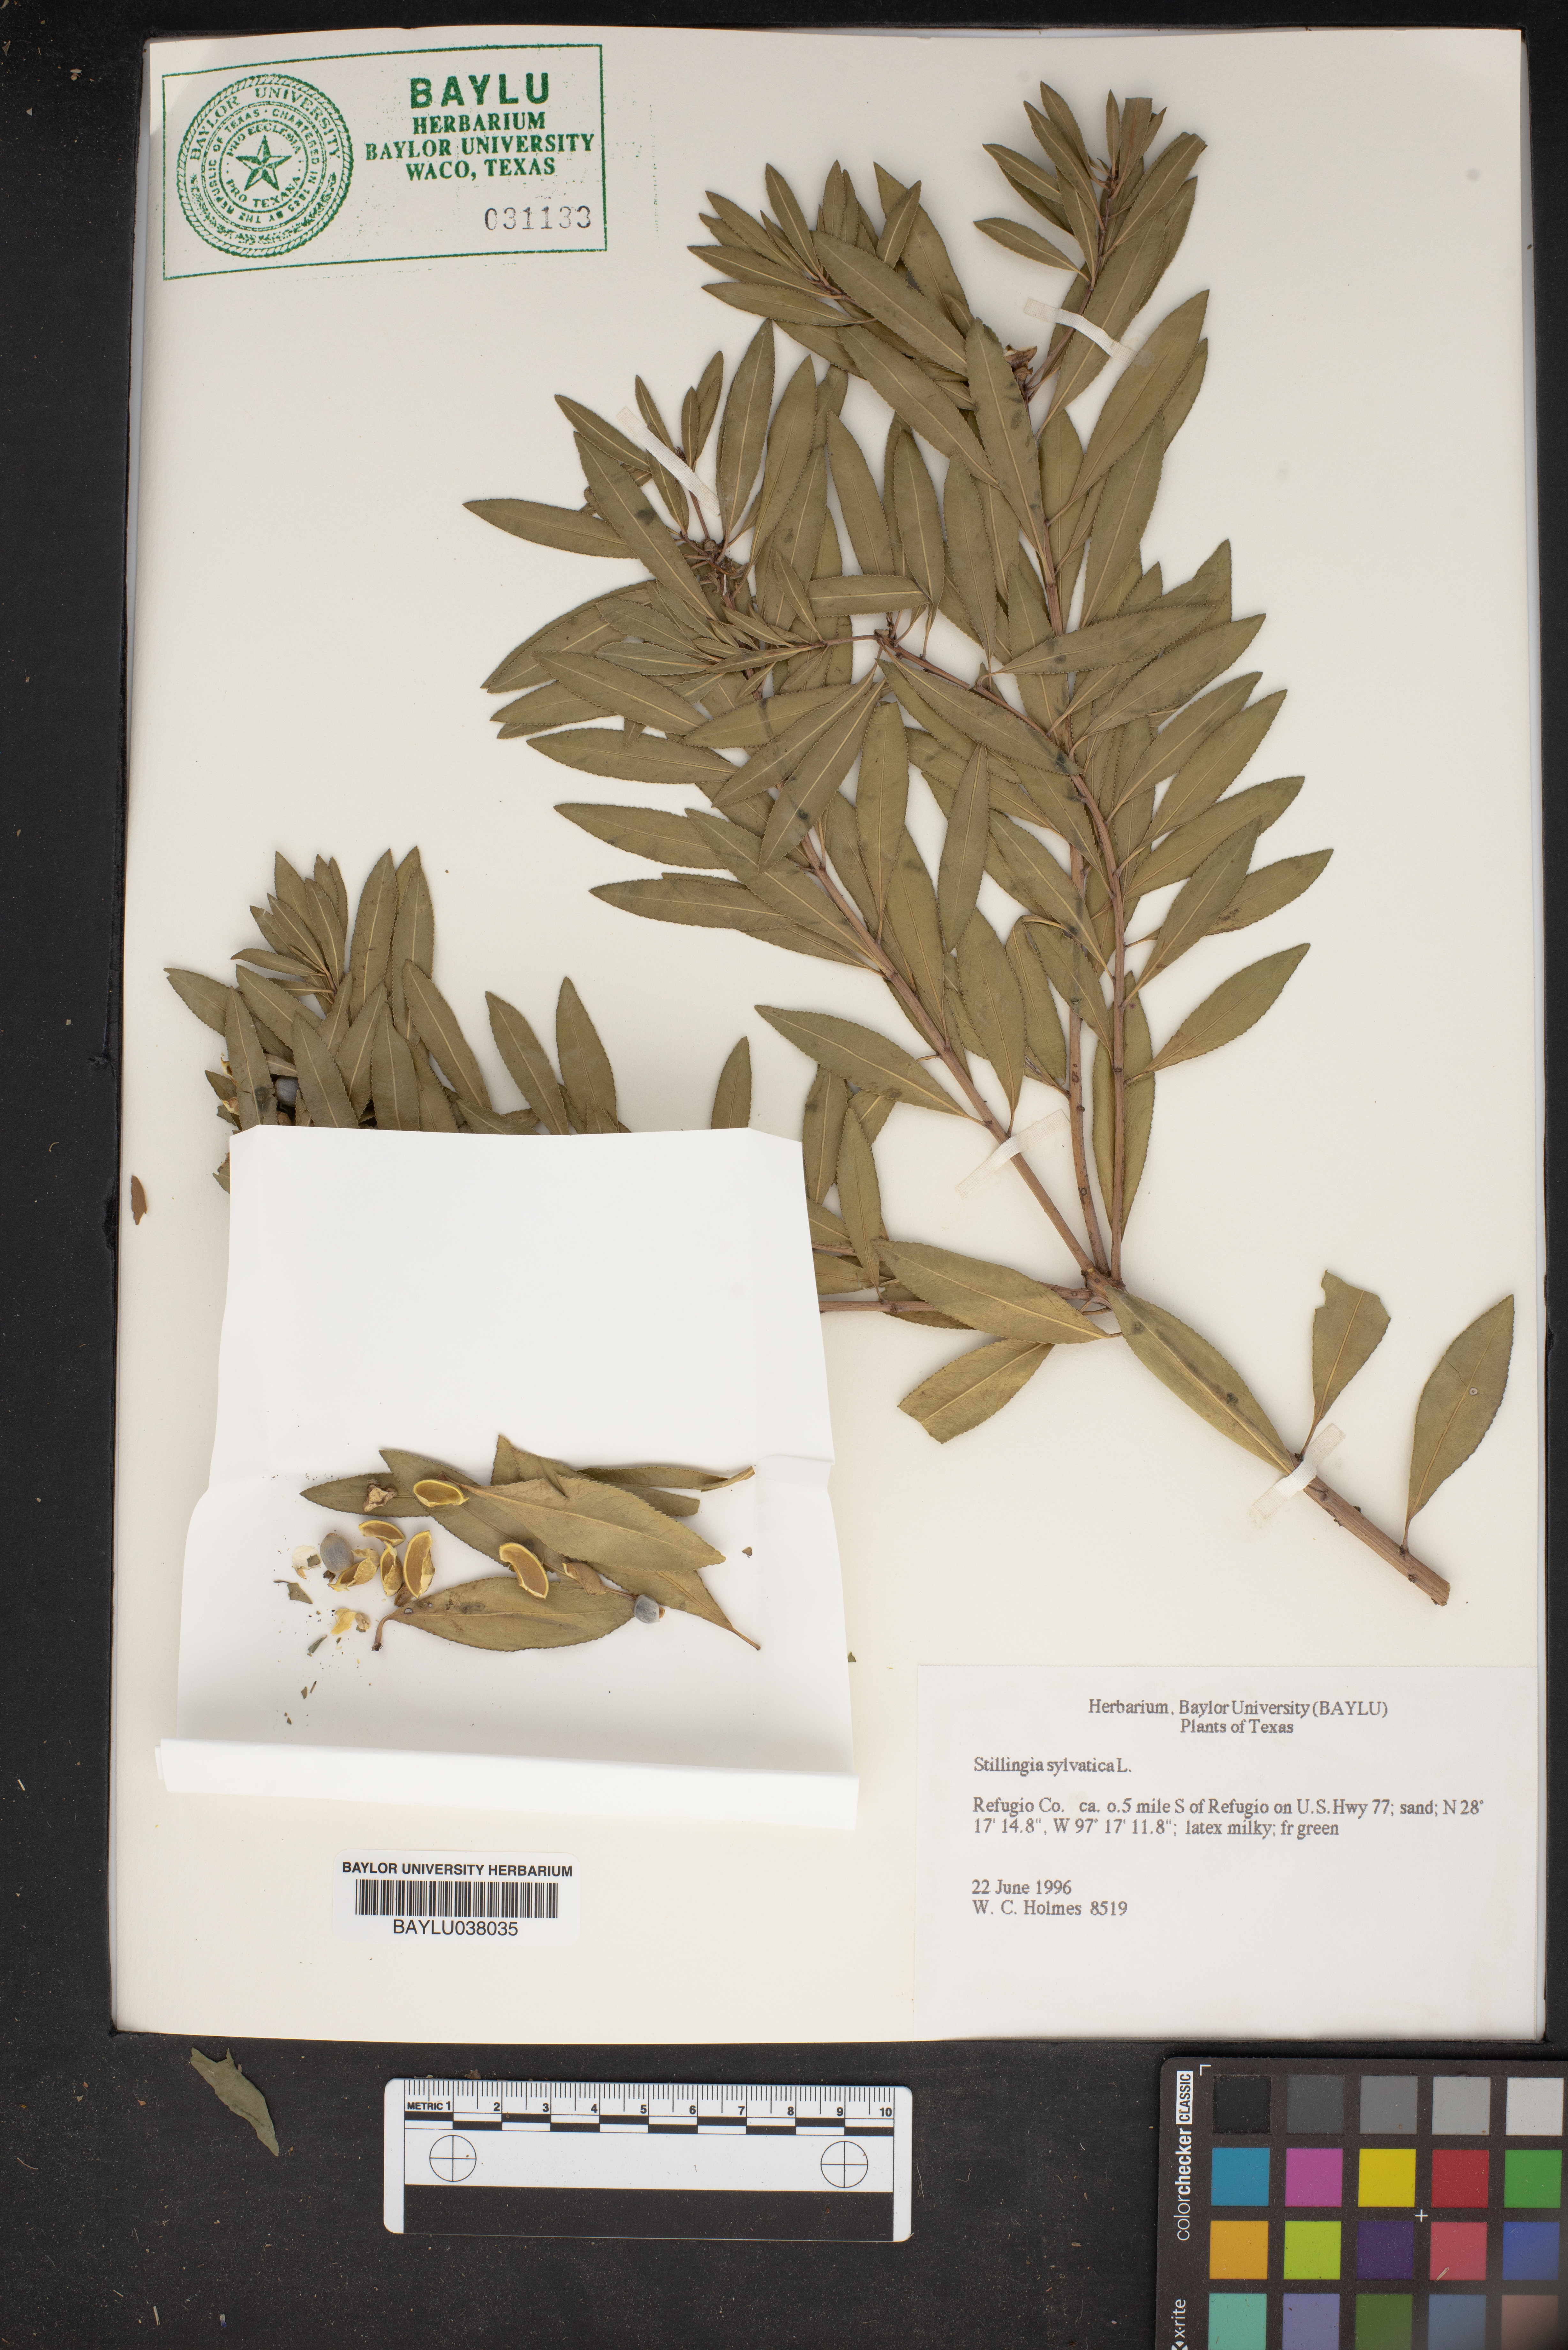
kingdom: Plantae
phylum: Tracheophyta
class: Magnoliopsida
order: Malpighiales
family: Euphorbiaceae
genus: Stillingia
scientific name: Stillingia sylvatica
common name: Queen's-delight
